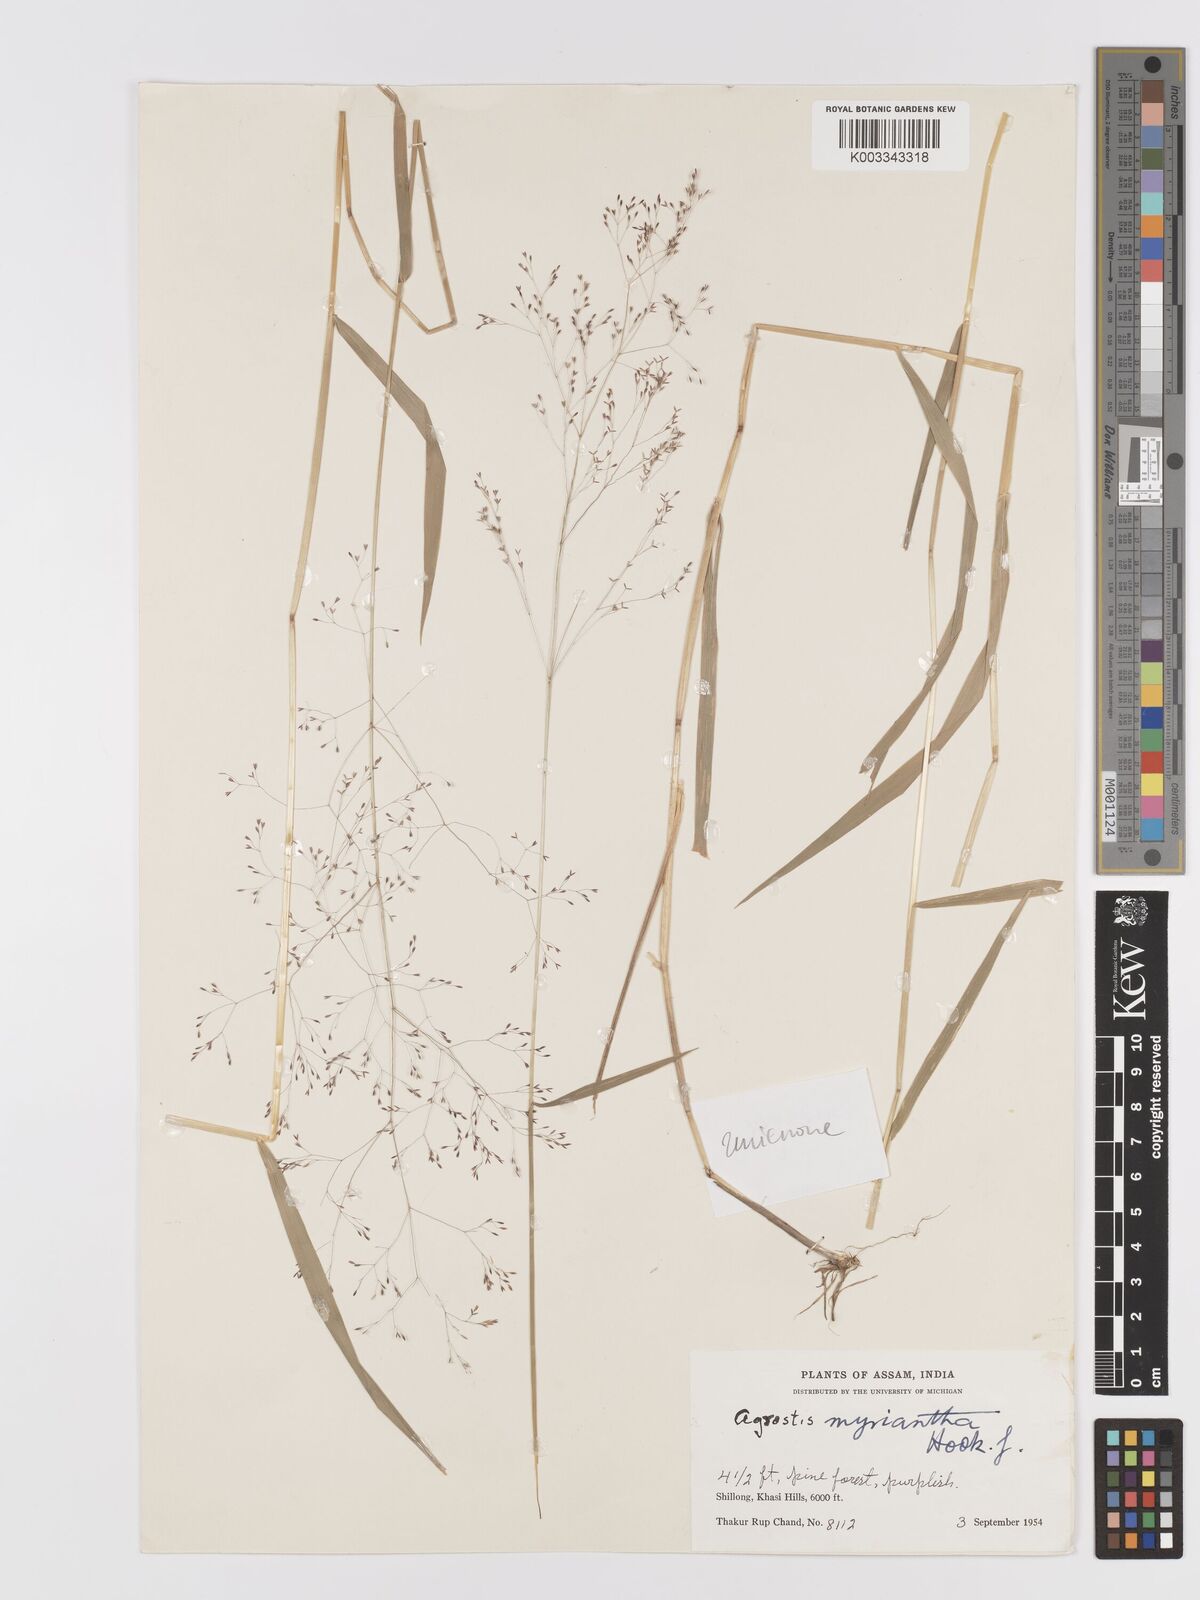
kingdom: Plantae
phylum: Tracheophyta
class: Liliopsida
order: Poales
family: Poaceae
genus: Agrostis
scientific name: Agrostis micrantha
